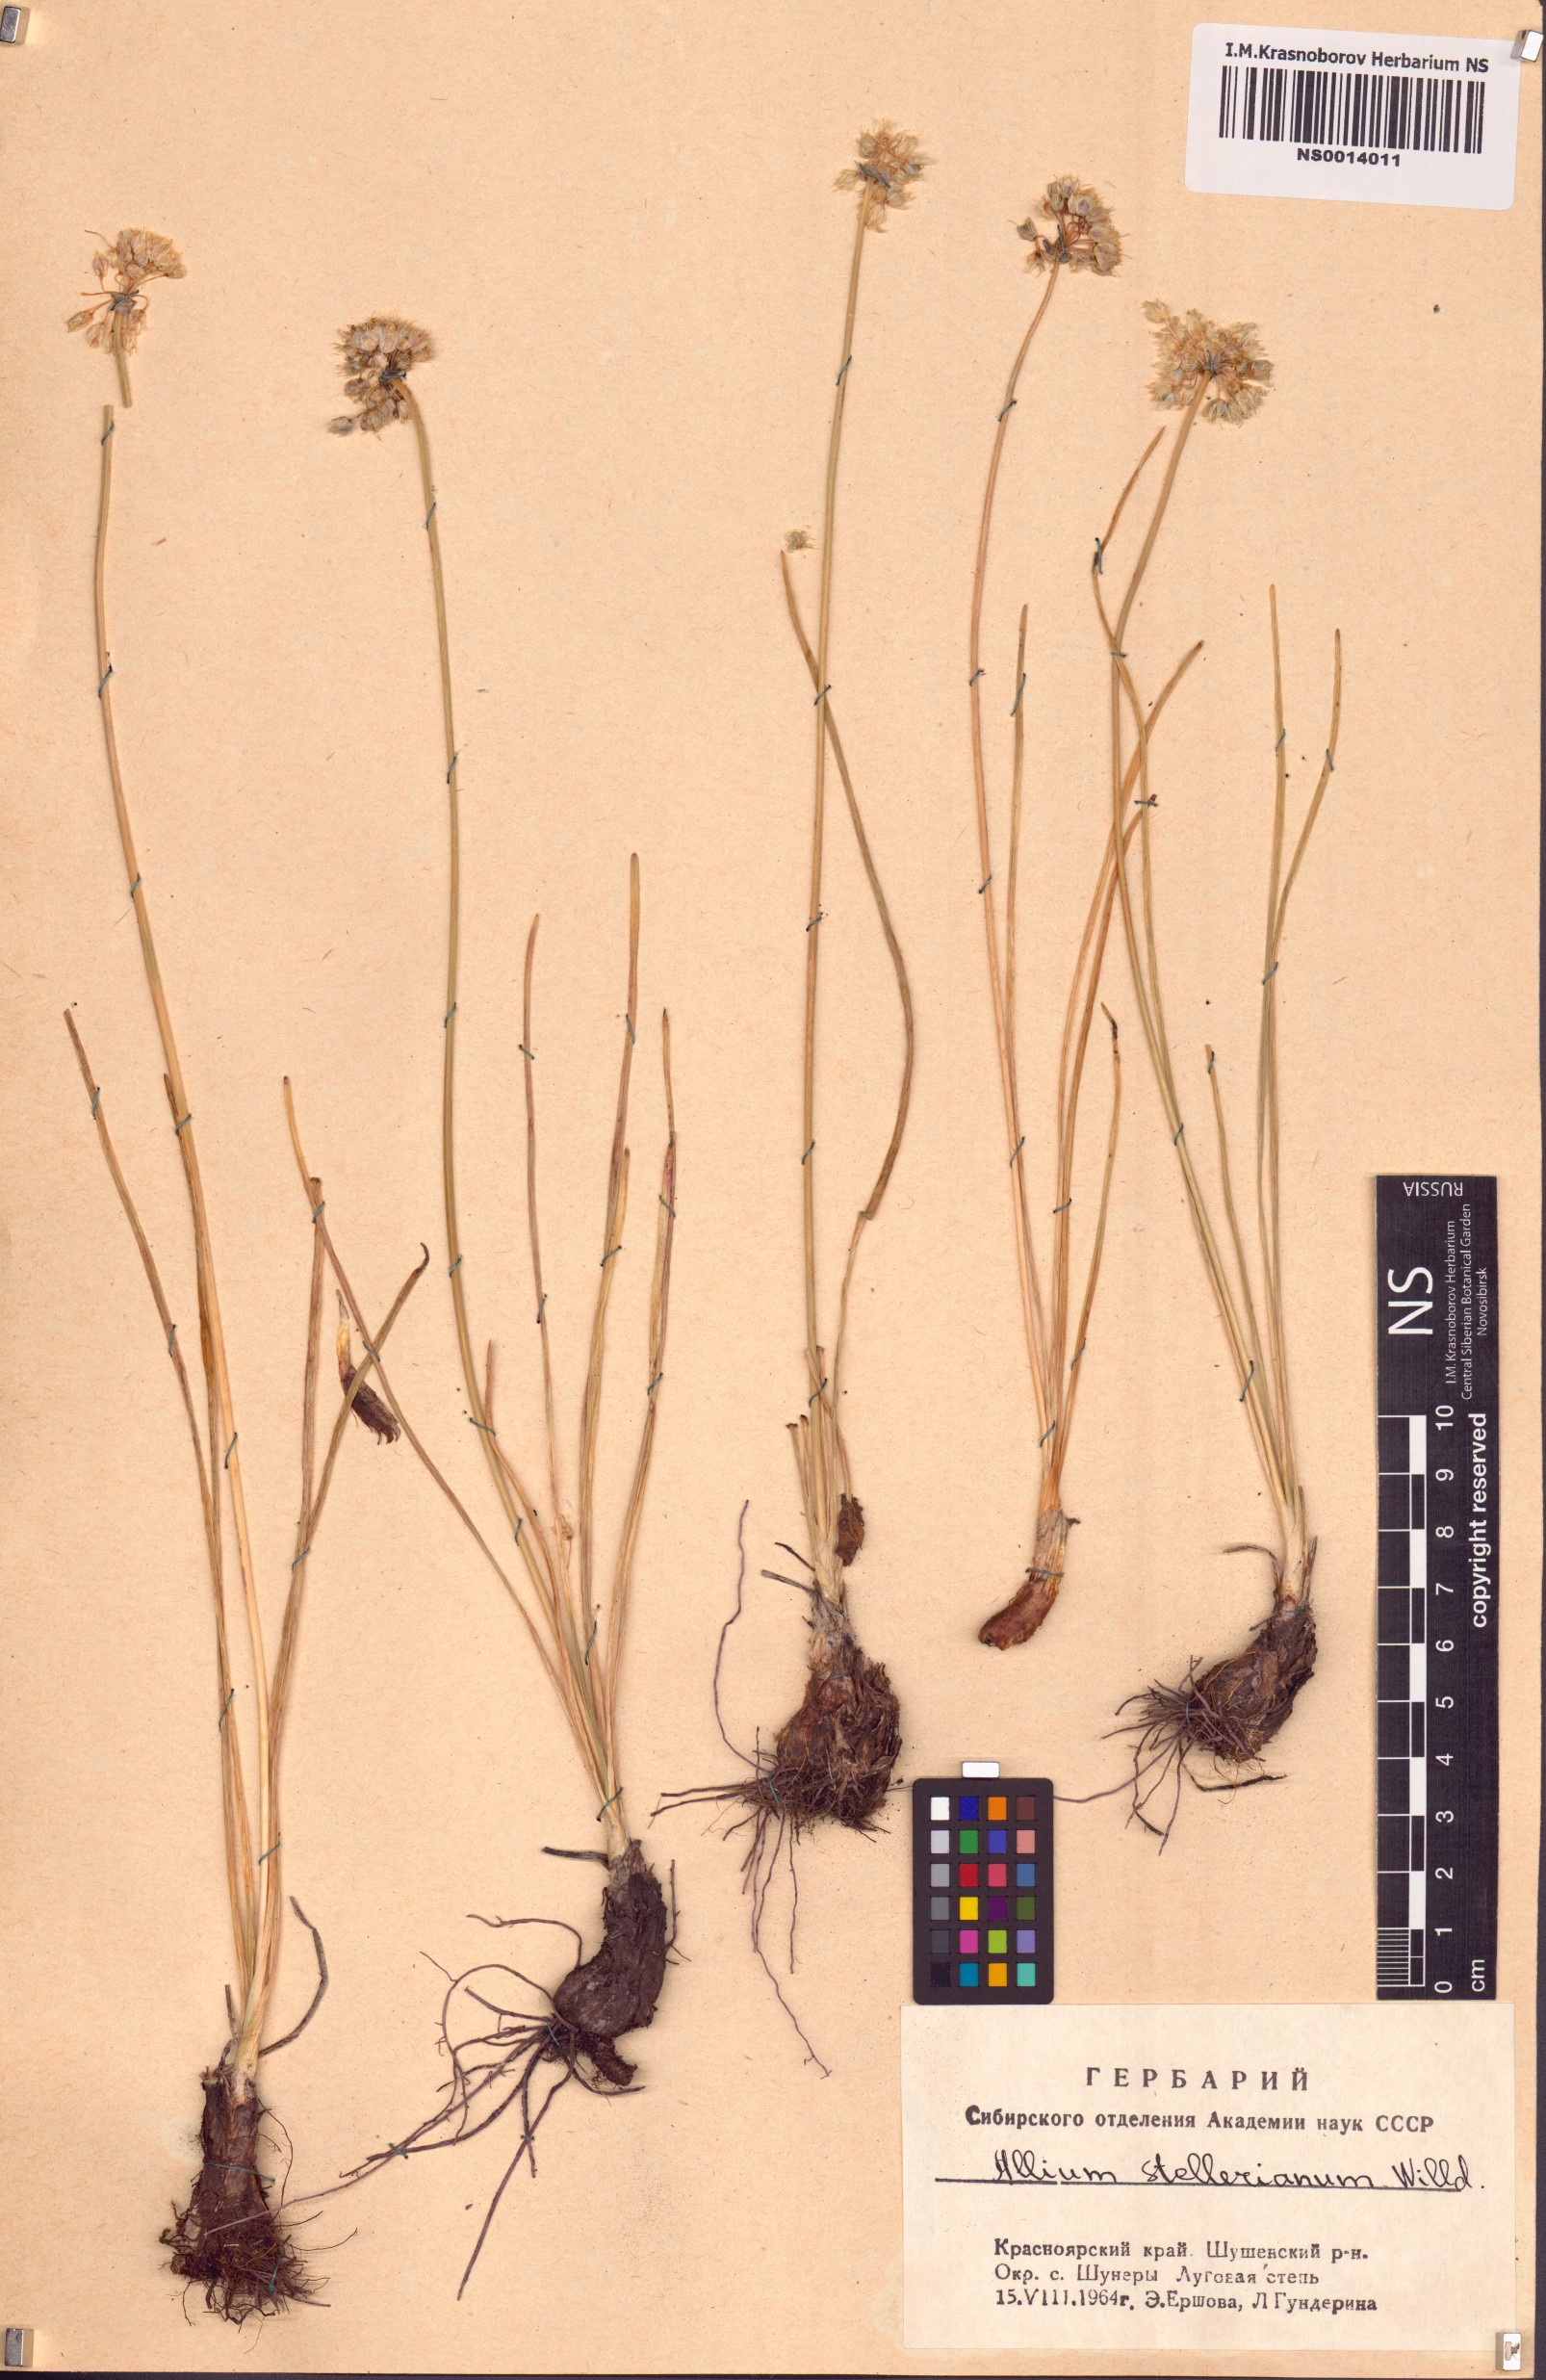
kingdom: Plantae
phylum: Tracheophyta
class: Liliopsida
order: Asparagales
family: Amaryllidaceae
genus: Allium
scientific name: Allium stellerianum
